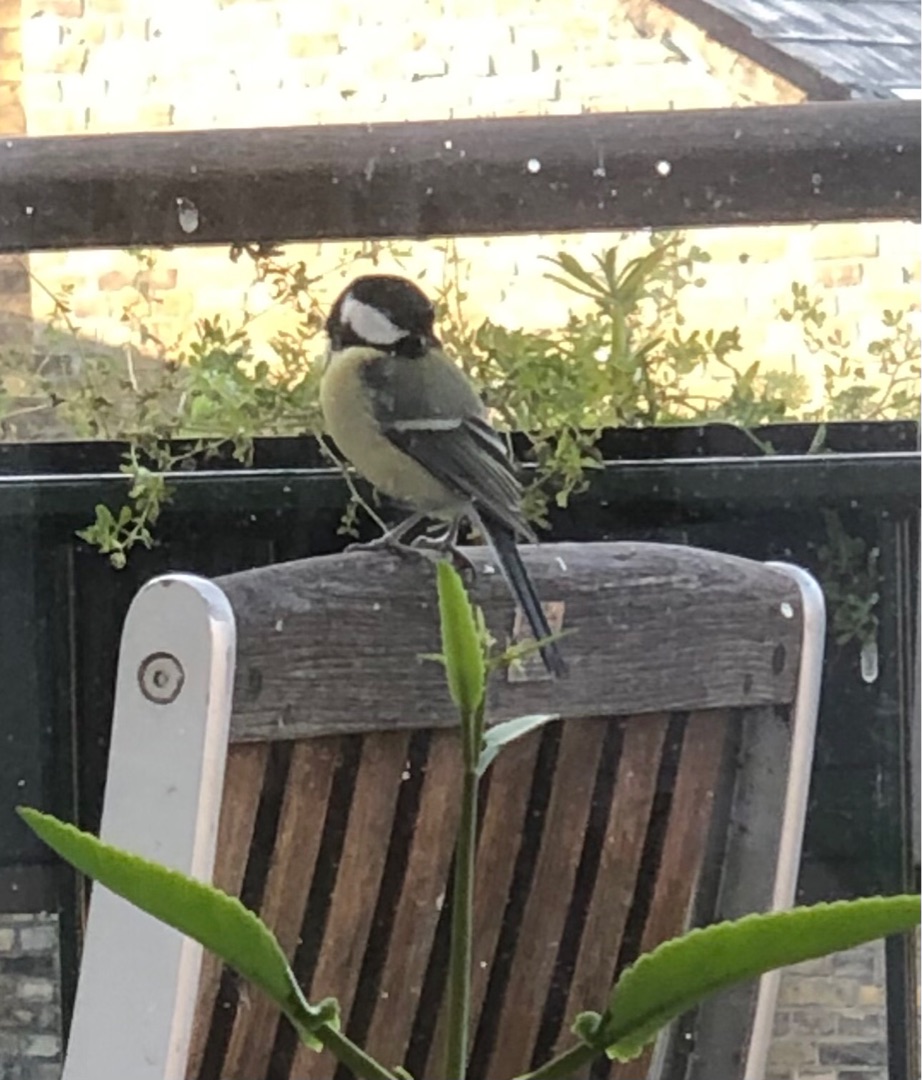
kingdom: Animalia
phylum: Chordata
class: Aves
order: Passeriformes
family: Paridae
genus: Parus
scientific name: Parus major
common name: Musvit
